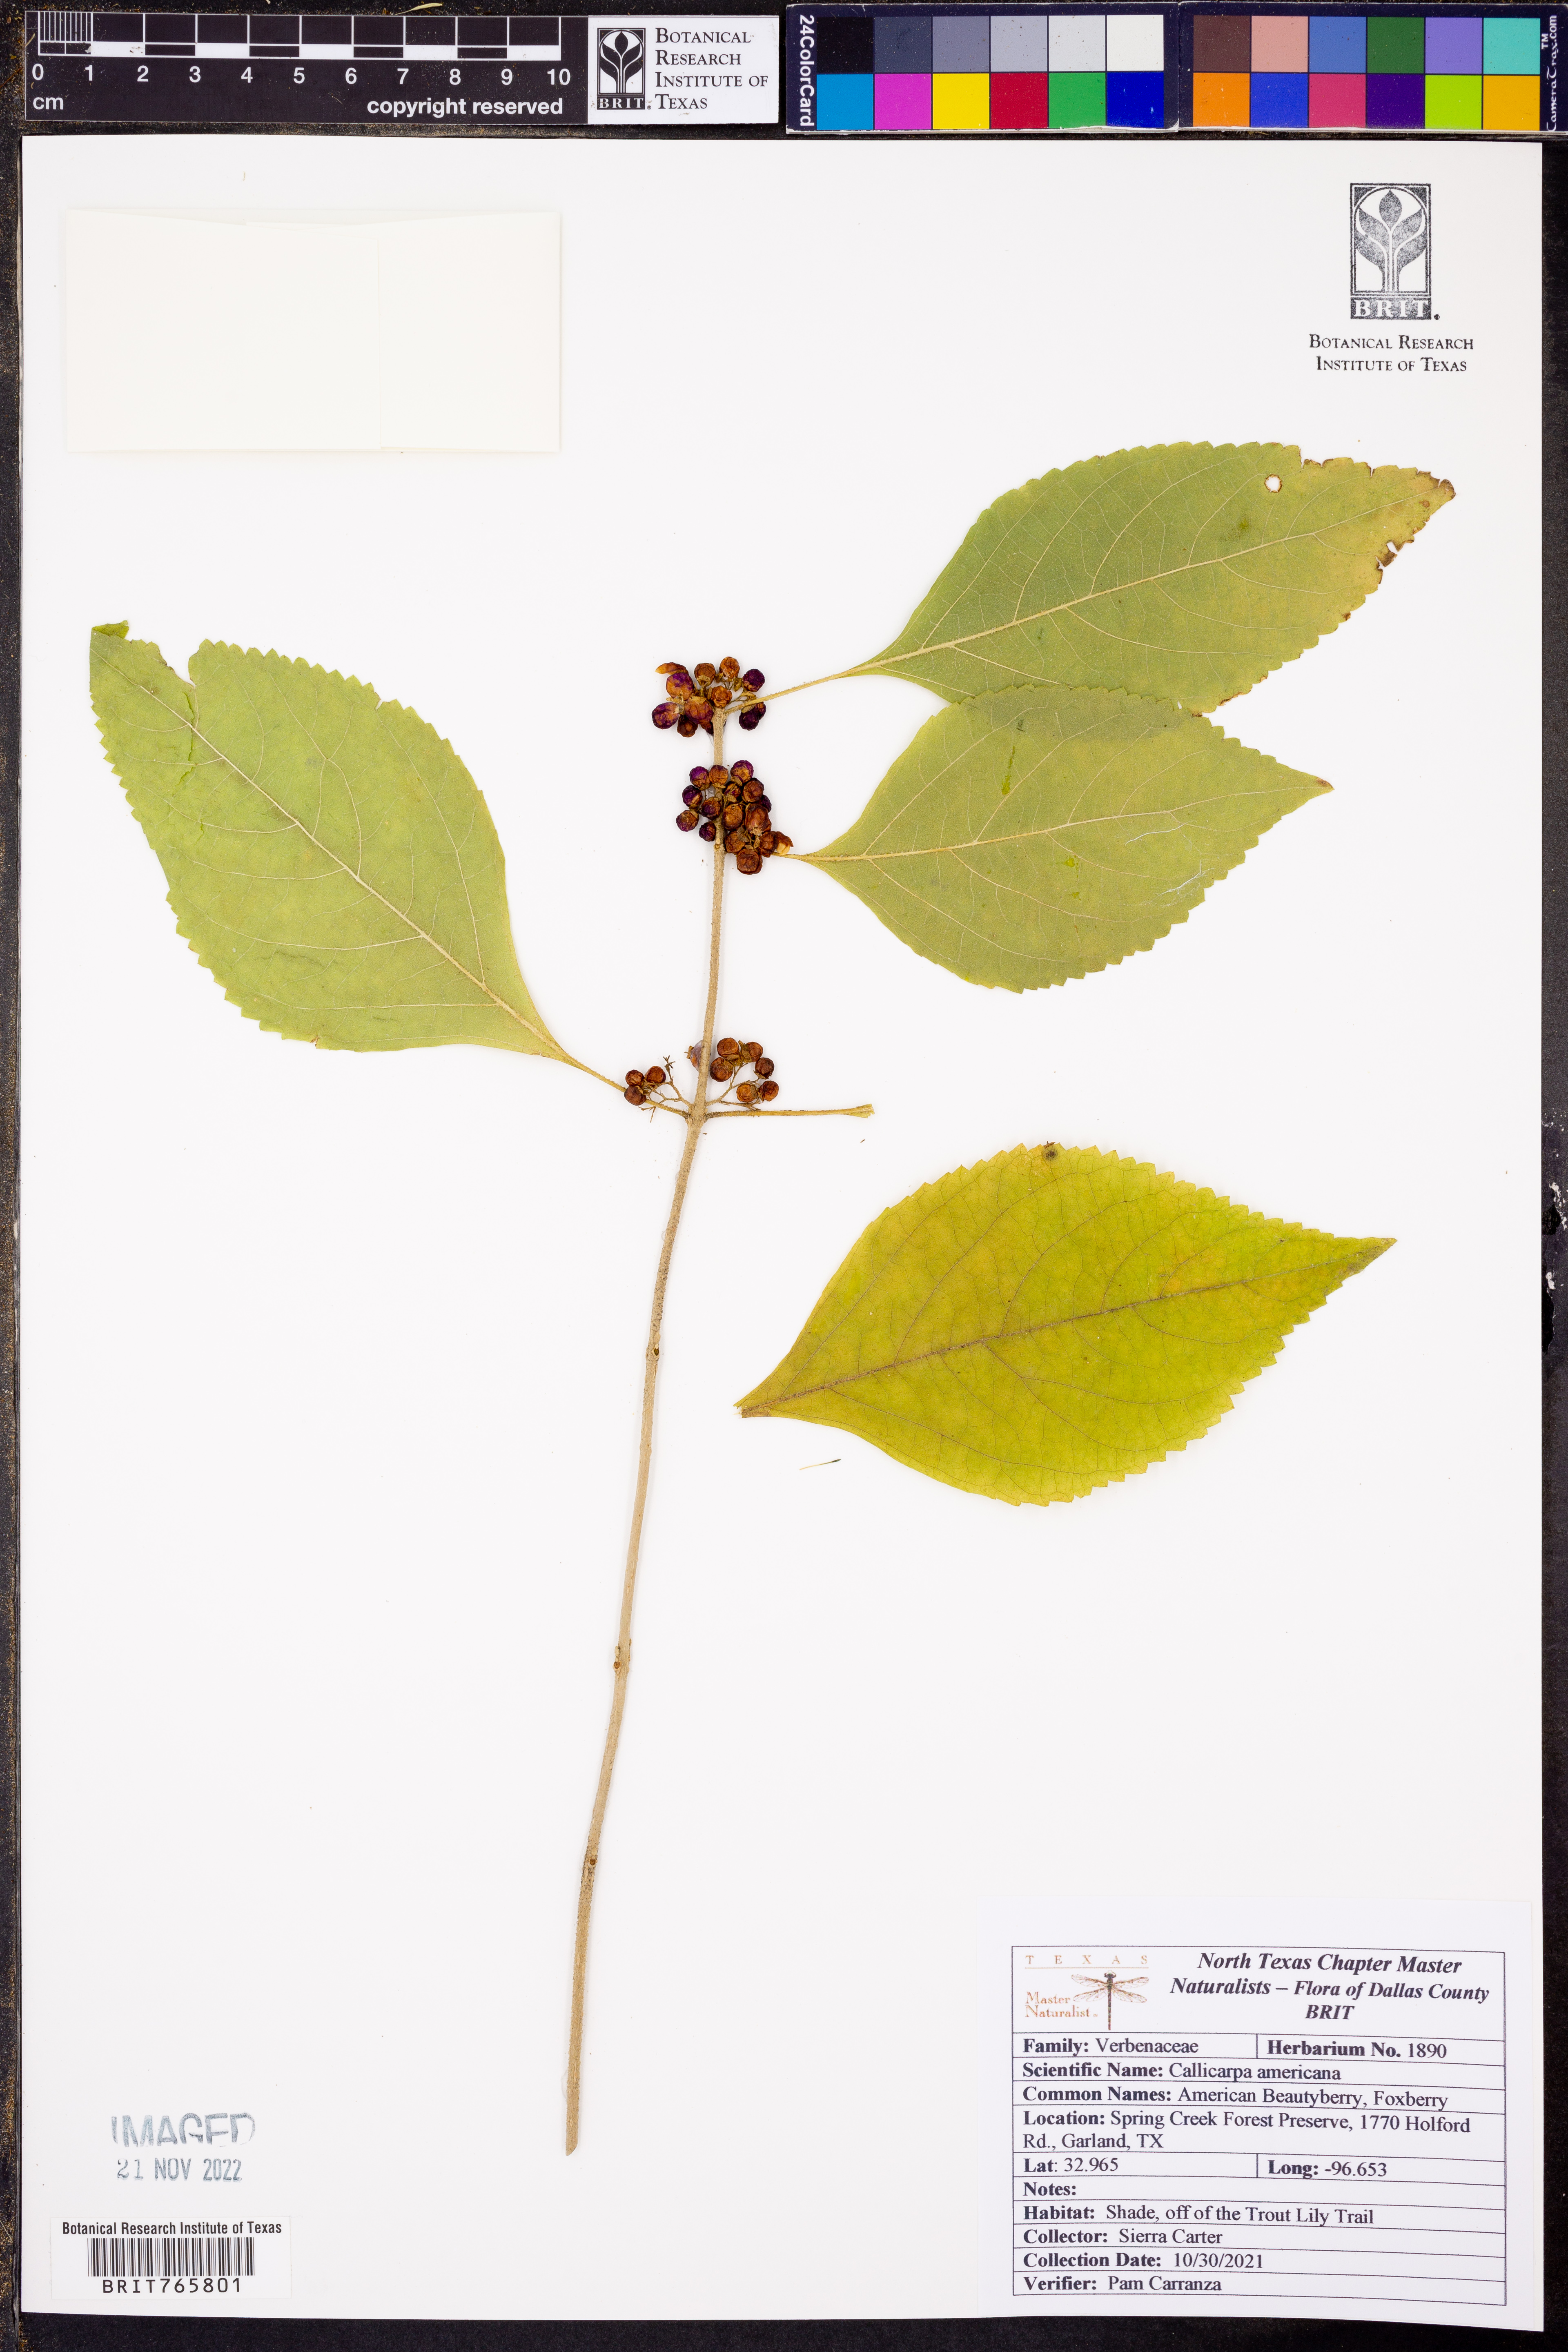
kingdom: Plantae
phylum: Tracheophyta
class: Magnoliopsida
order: Lamiales
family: Lamiaceae
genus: Callicarpa
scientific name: Callicarpa americana
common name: American beautyberry
